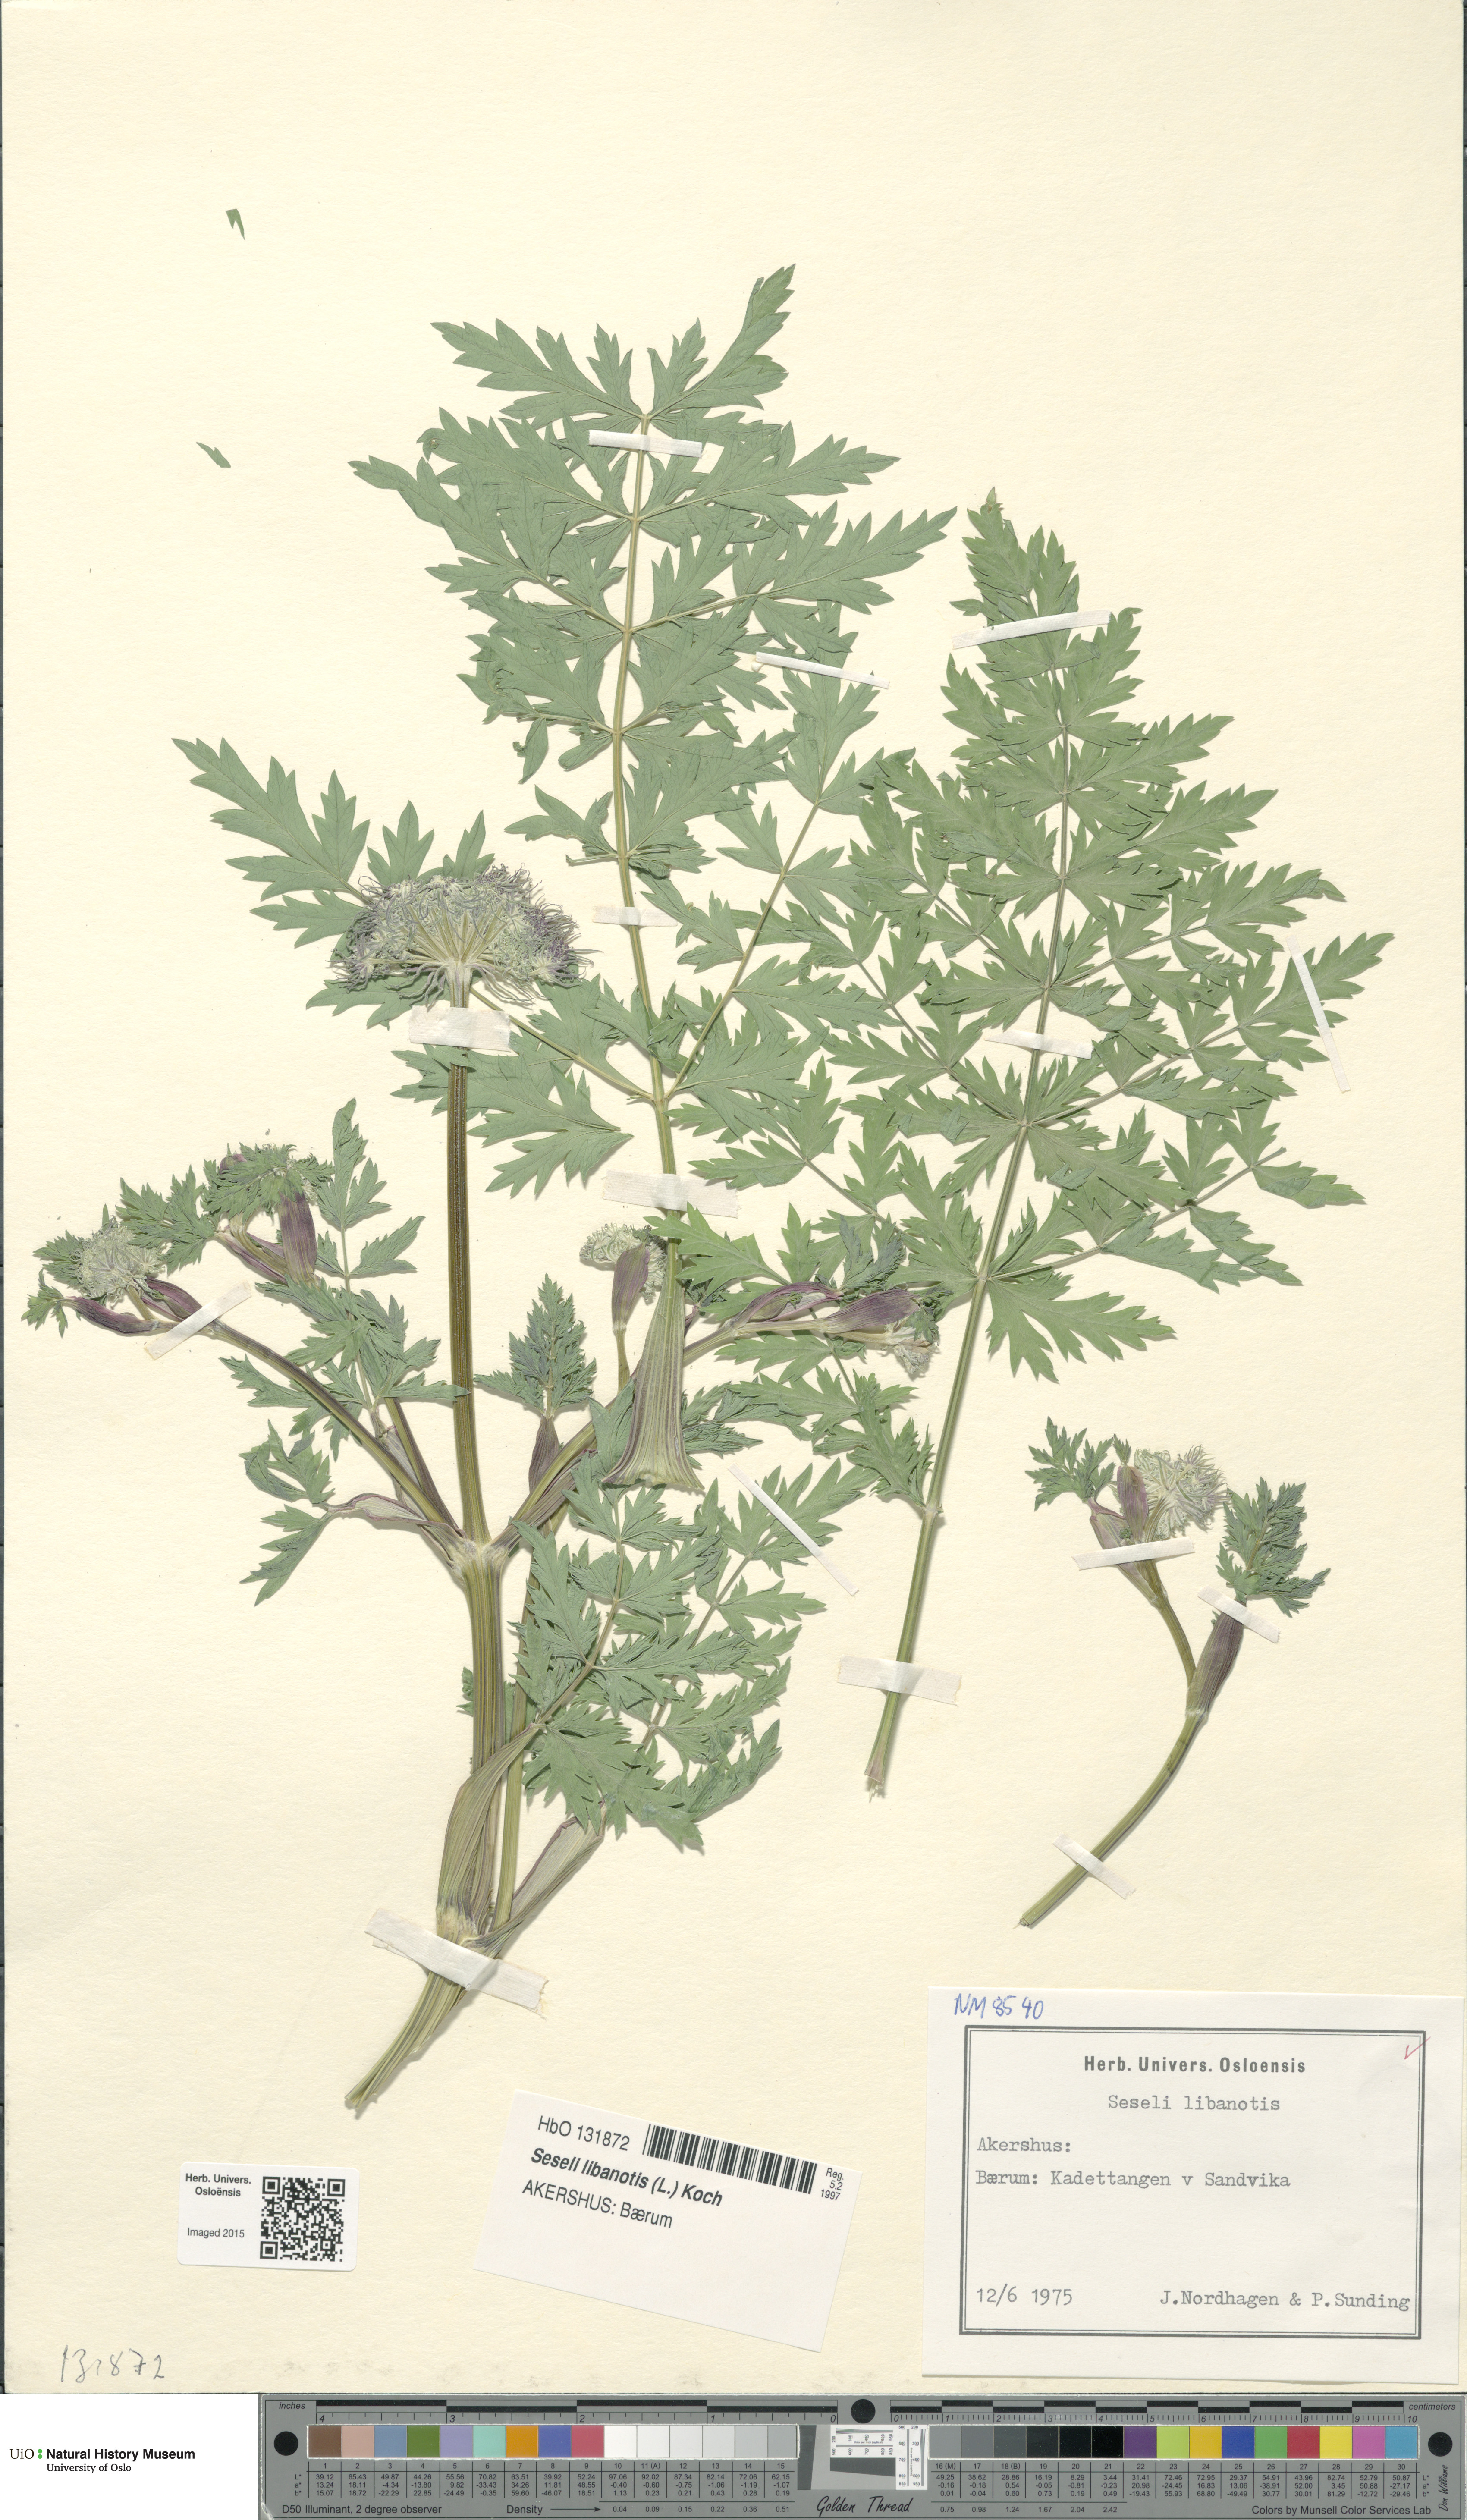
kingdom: Plantae
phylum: Tracheophyta
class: Magnoliopsida
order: Apiales
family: Apiaceae
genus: Seseli
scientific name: Seseli libanotis
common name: Mooncarrot
